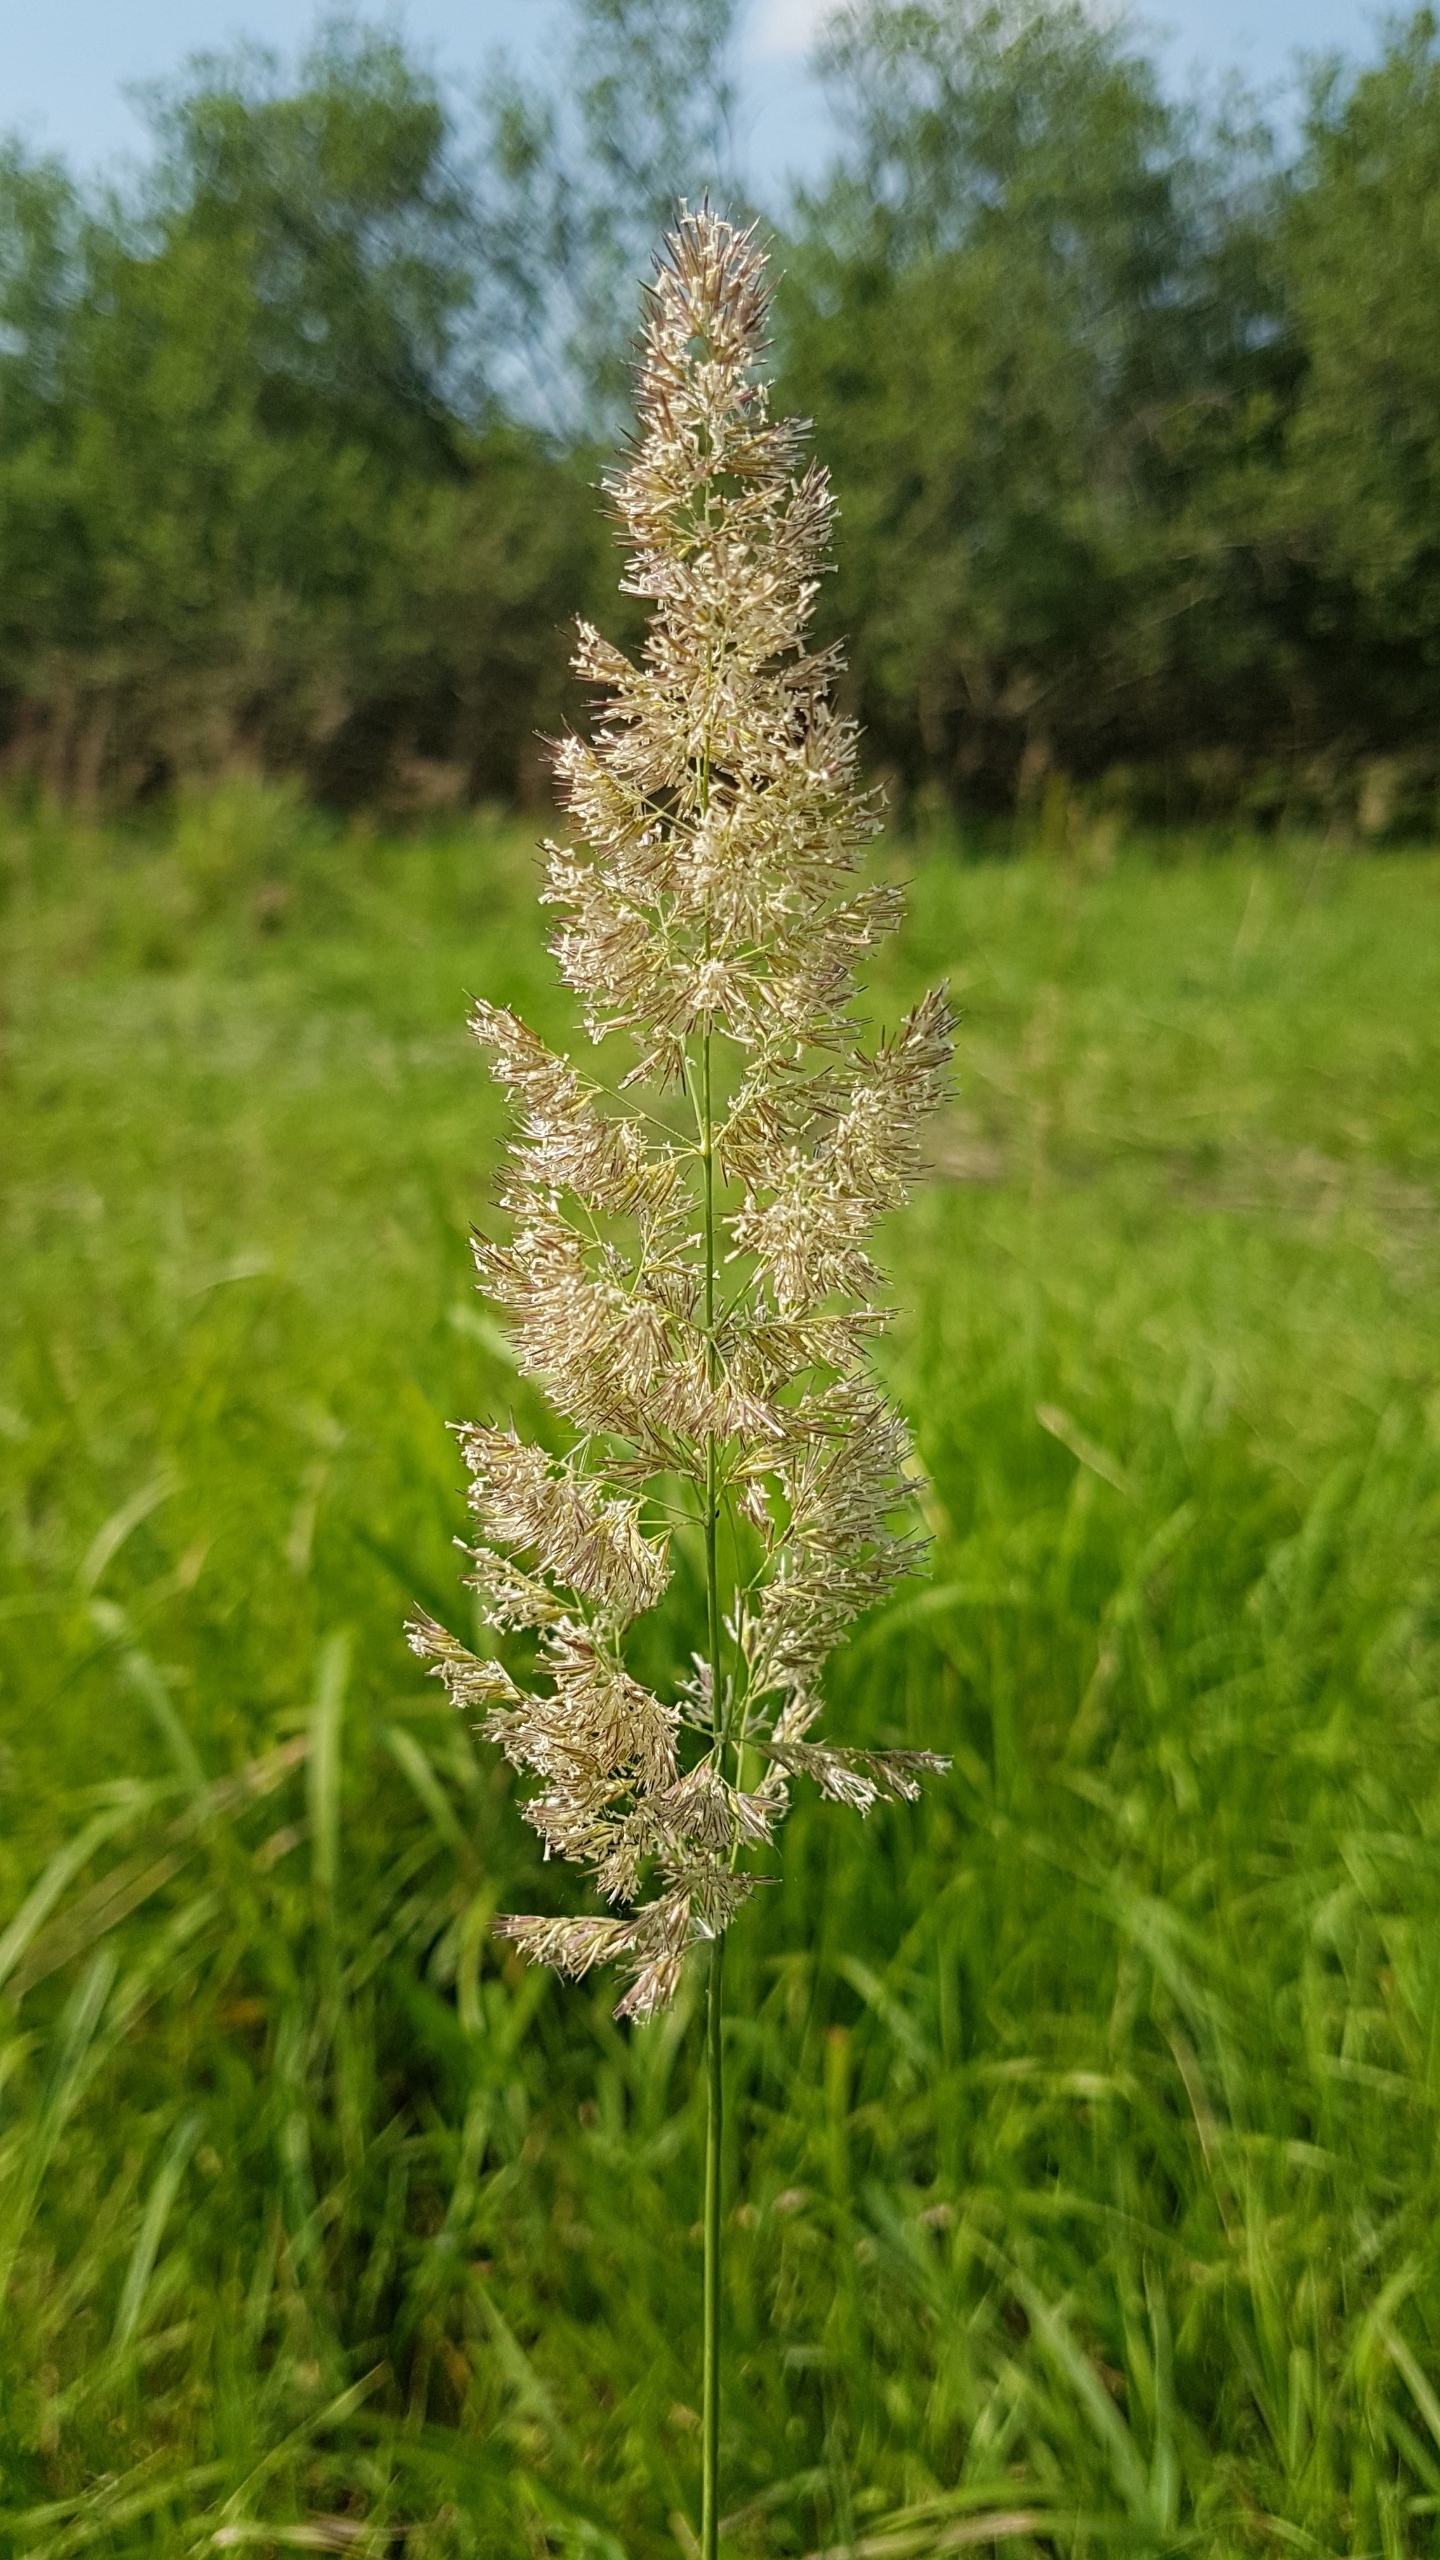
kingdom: Plantae
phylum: Tracheophyta
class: Liliopsida
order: Poales
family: Poaceae
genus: Calamagrostis
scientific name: Calamagrostis epigejos
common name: Bjerg-rørhvene
